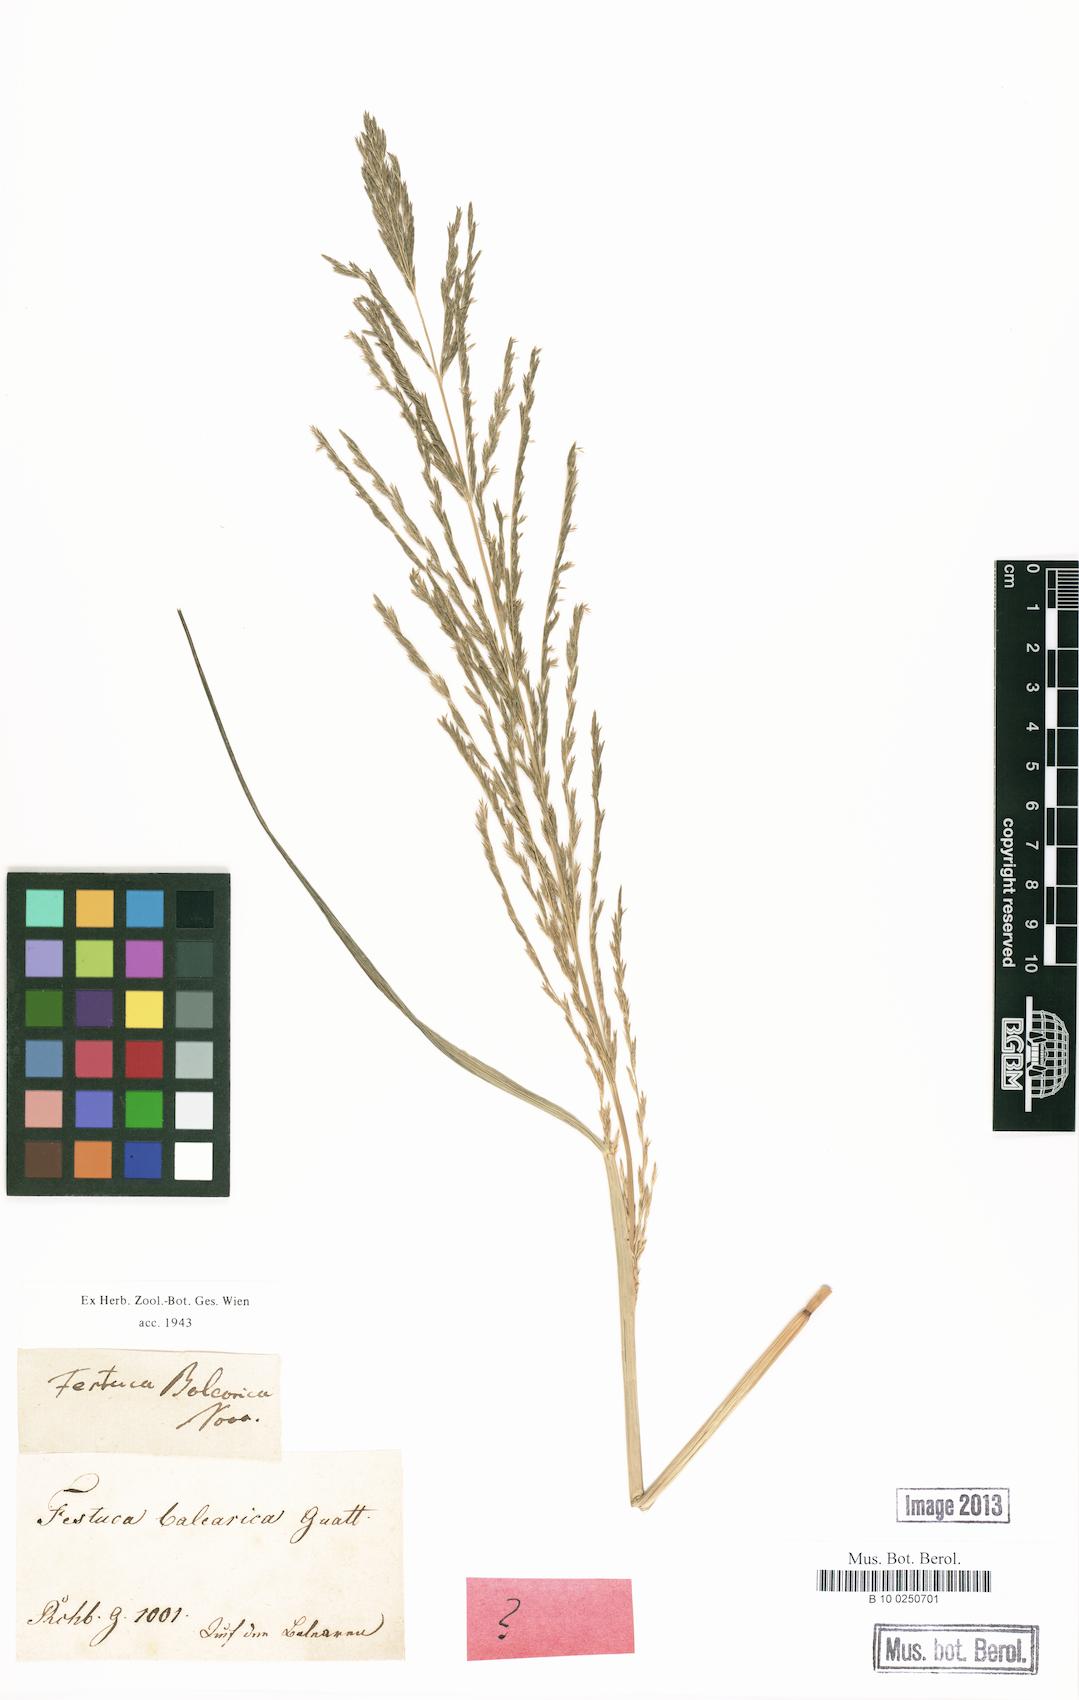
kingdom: Plantae
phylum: Tracheophyta
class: Liliopsida
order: Poales
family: Poaceae
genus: Festuca
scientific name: Festuca rubra
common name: Red fescue
